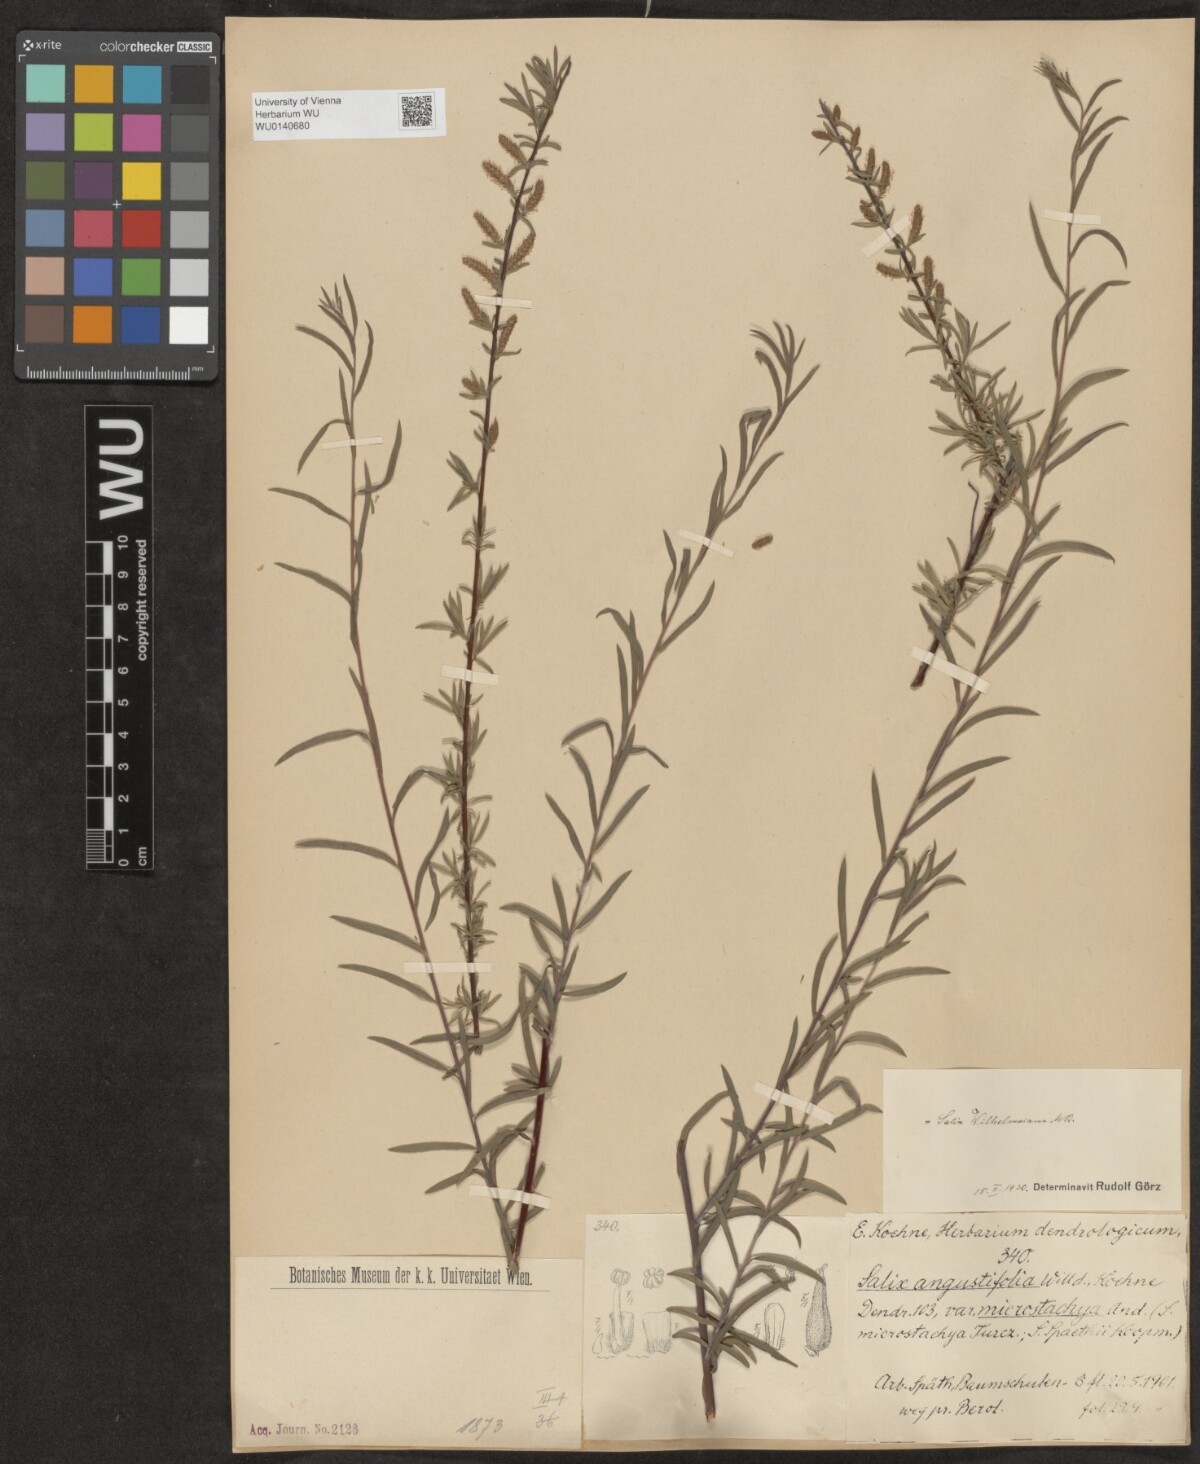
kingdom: Plantae
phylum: Tracheophyta
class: Magnoliopsida
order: Malpighiales
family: Salicaceae
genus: Salix
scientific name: Salix wilhelmsiana
